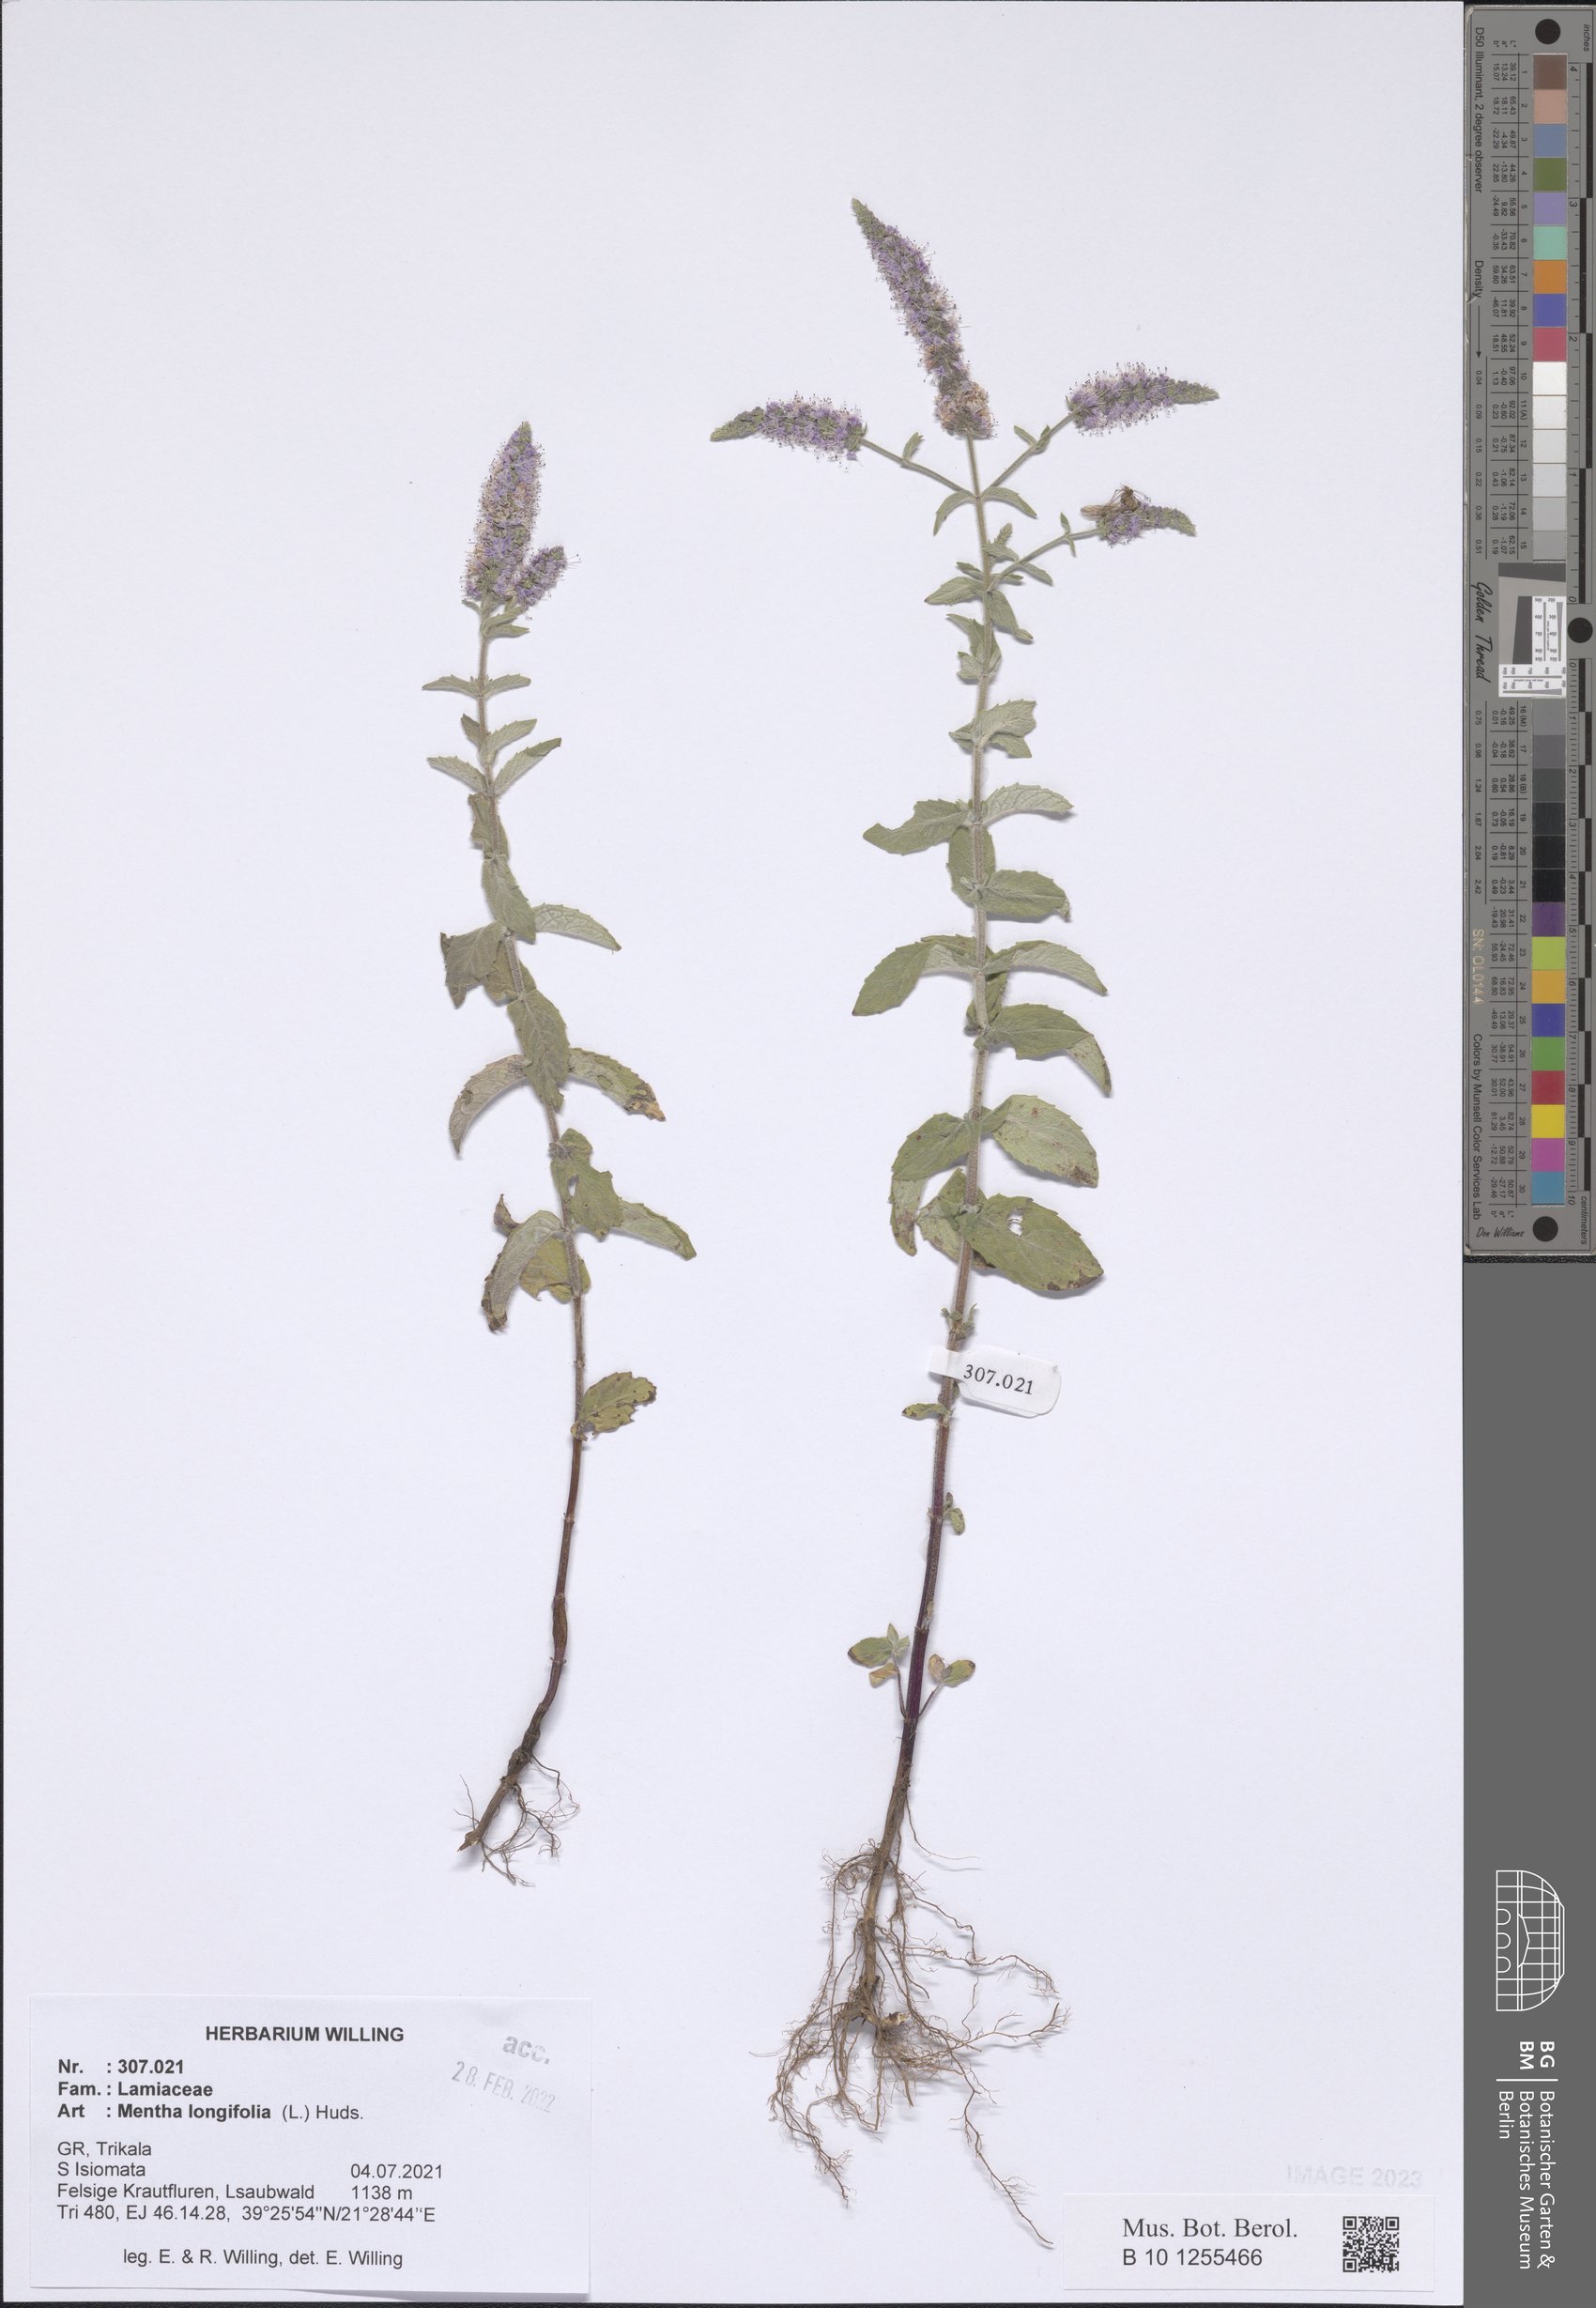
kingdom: Plantae
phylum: Tracheophyta
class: Magnoliopsida
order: Lamiales
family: Lamiaceae
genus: Mentha
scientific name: Mentha longifolia
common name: Horse mint
